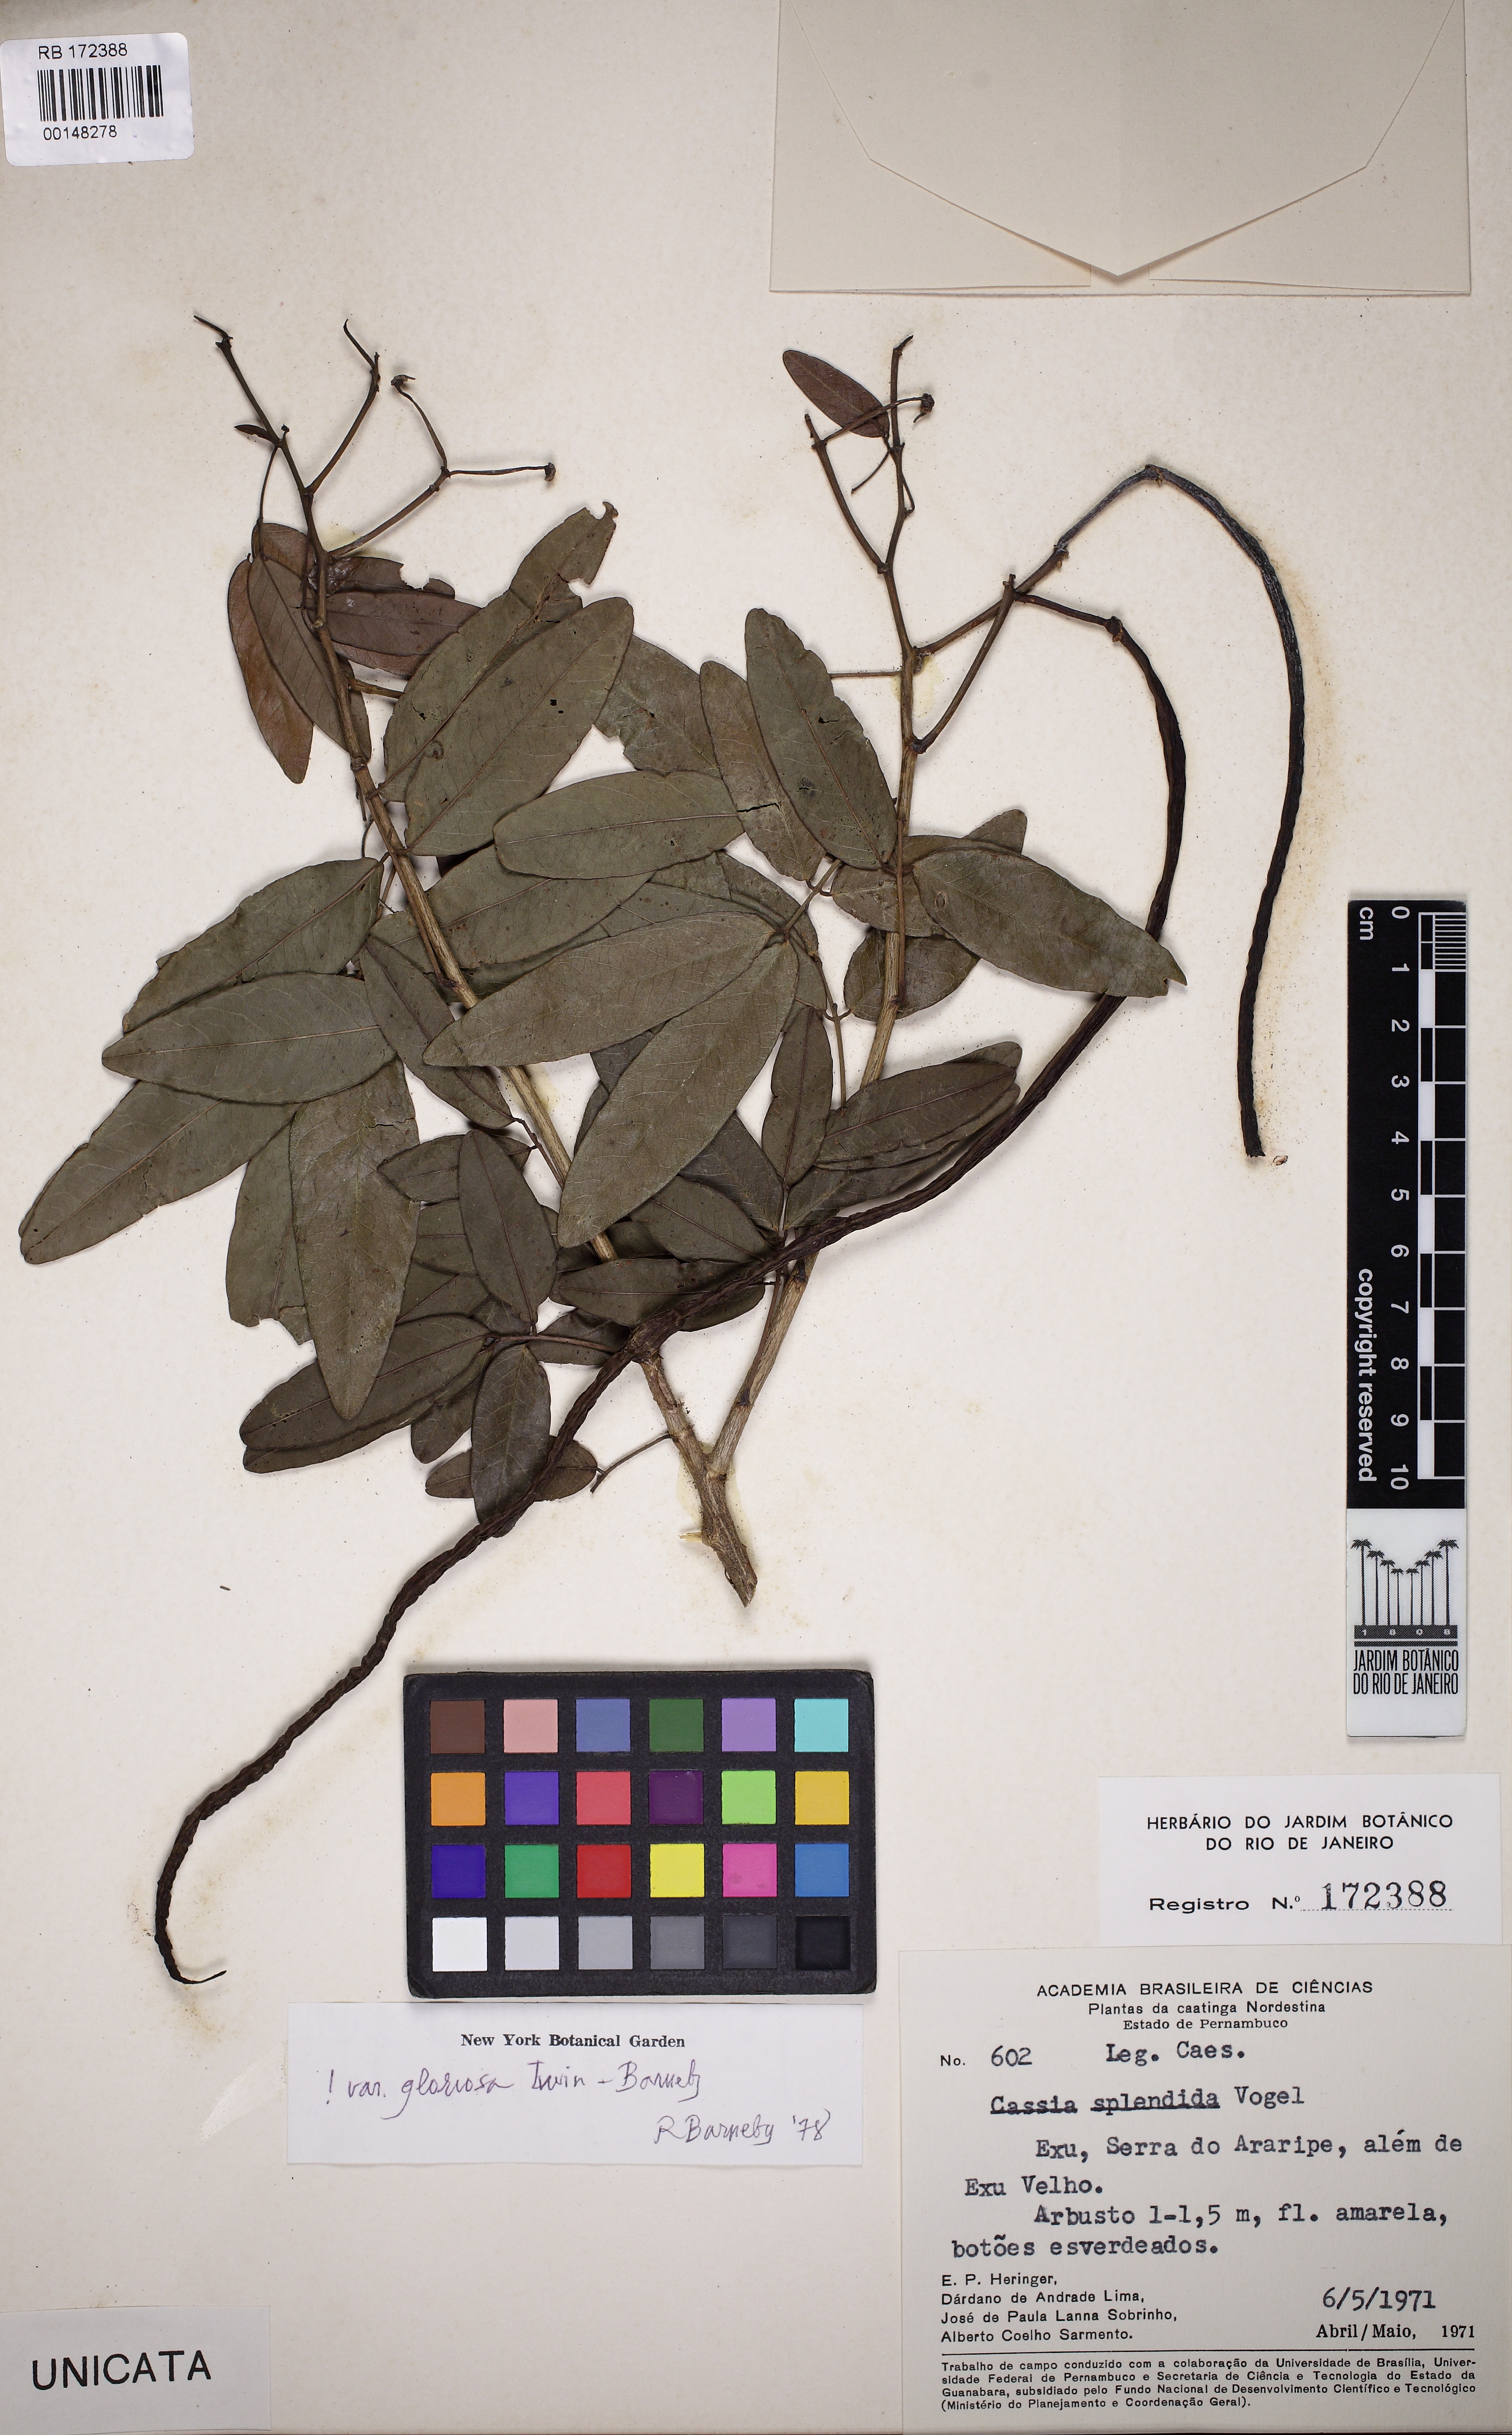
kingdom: Plantae
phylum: Tracheophyta
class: Magnoliopsida
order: Fabales
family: Fabaceae
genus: Senna
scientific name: Senna splendida
